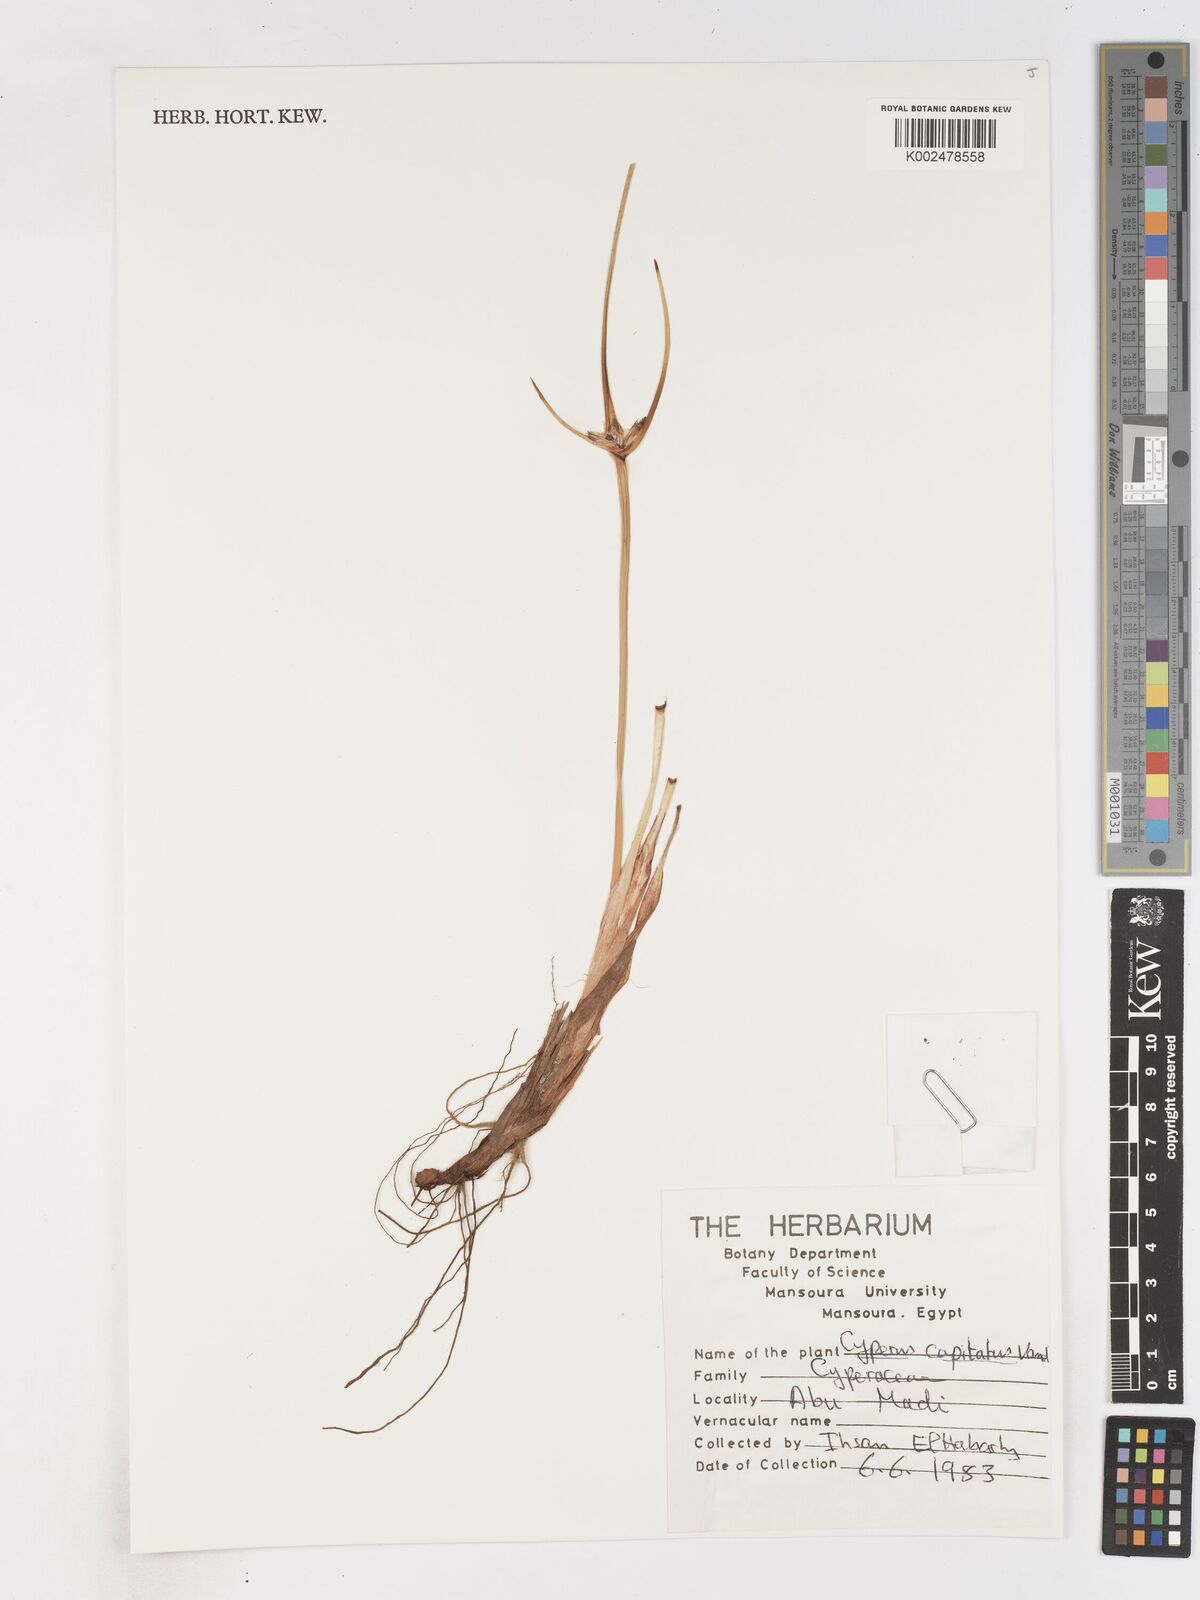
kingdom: Plantae
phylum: Tracheophyta
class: Liliopsida
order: Poales
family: Cyperaceae
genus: Cyperus
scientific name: Cyperus capitatus
